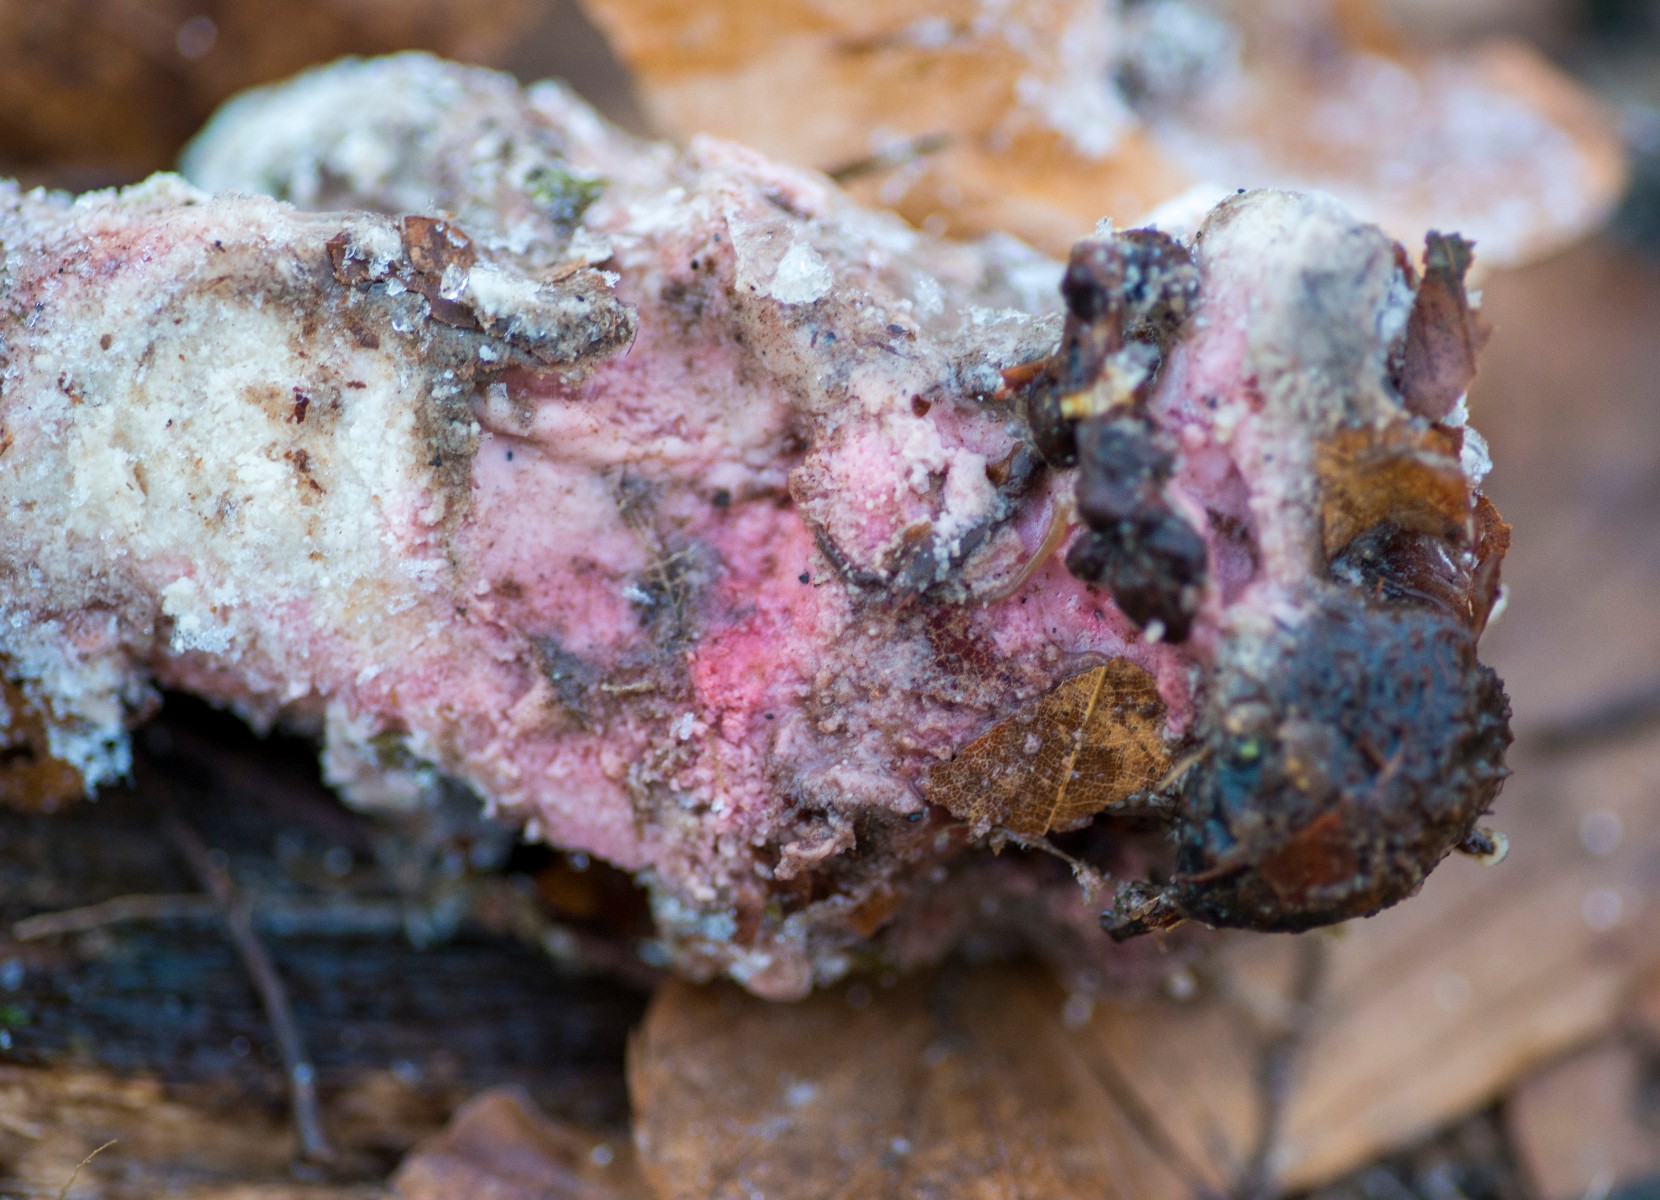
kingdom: Fungi
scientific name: Fungi
